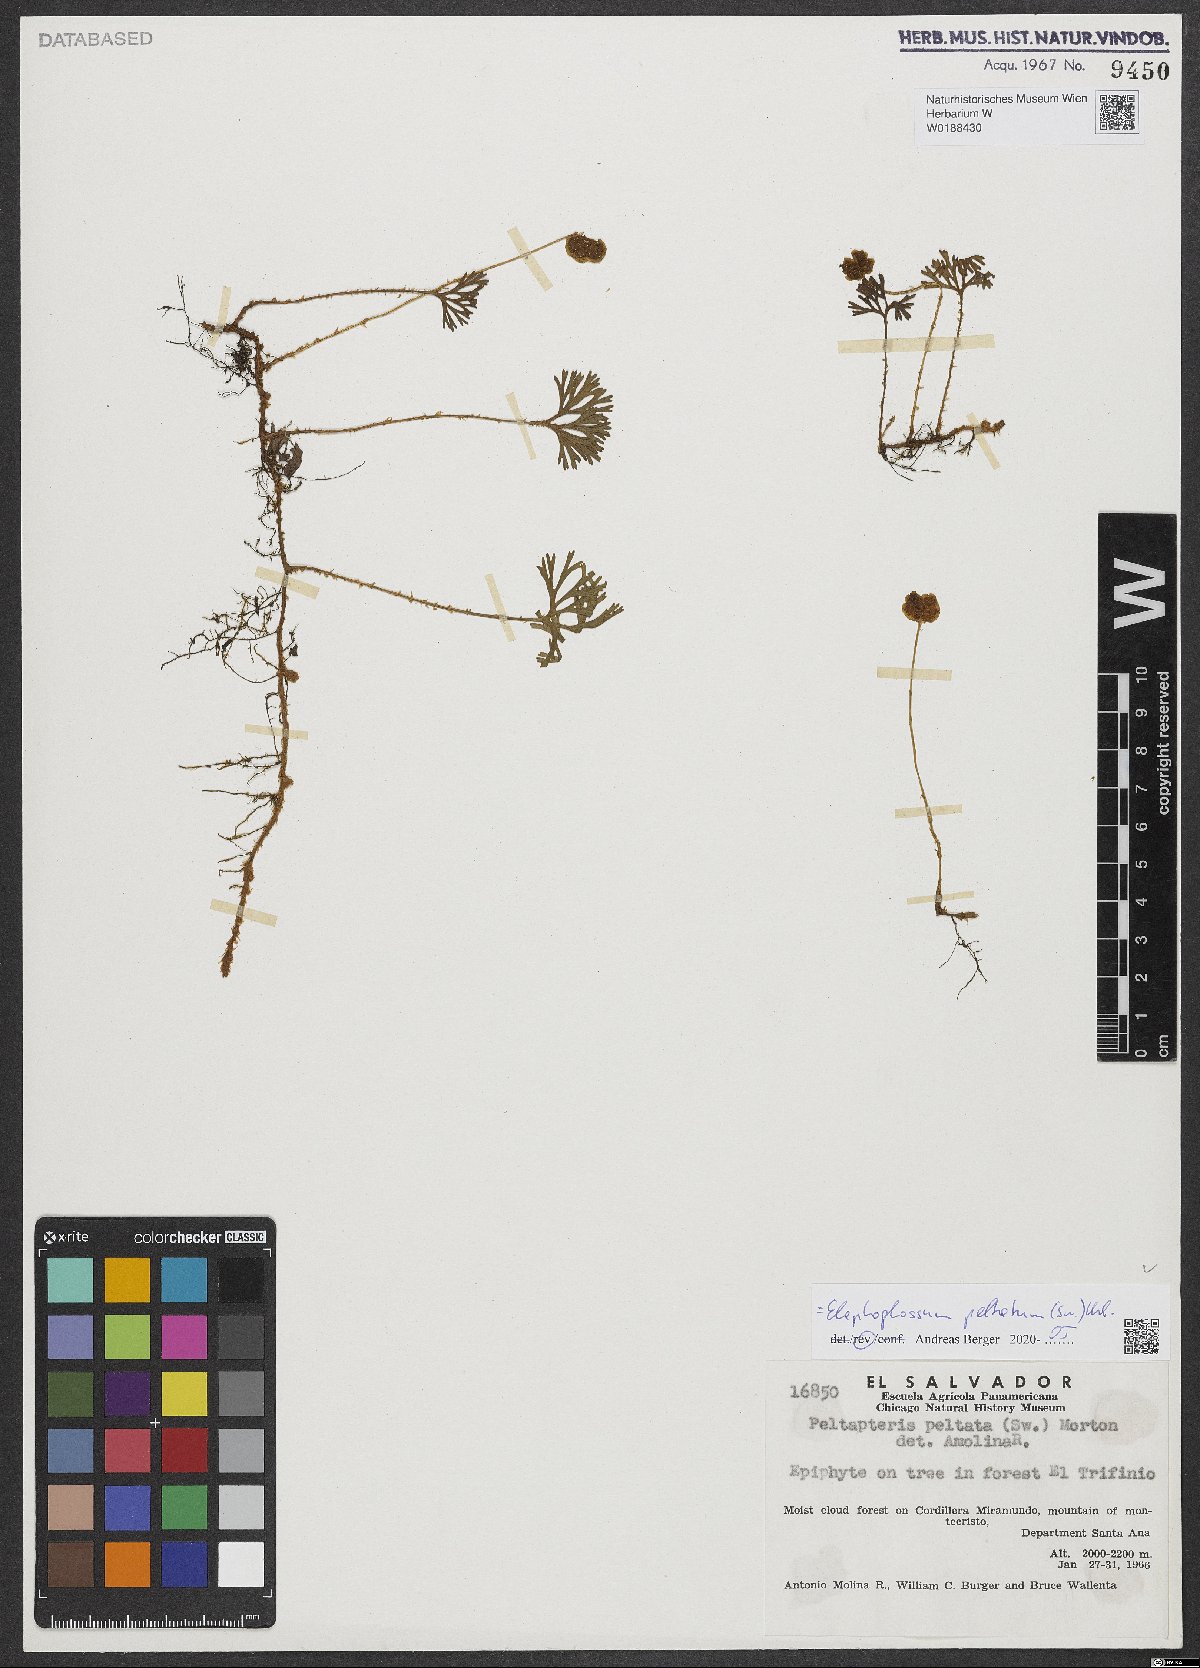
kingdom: Plantae
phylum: Tracheophyta
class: Polypodiopsida
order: Polypodiales
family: Dryopteridaceae
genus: Elaphoglossum
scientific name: Elaphoglossum peltatum
